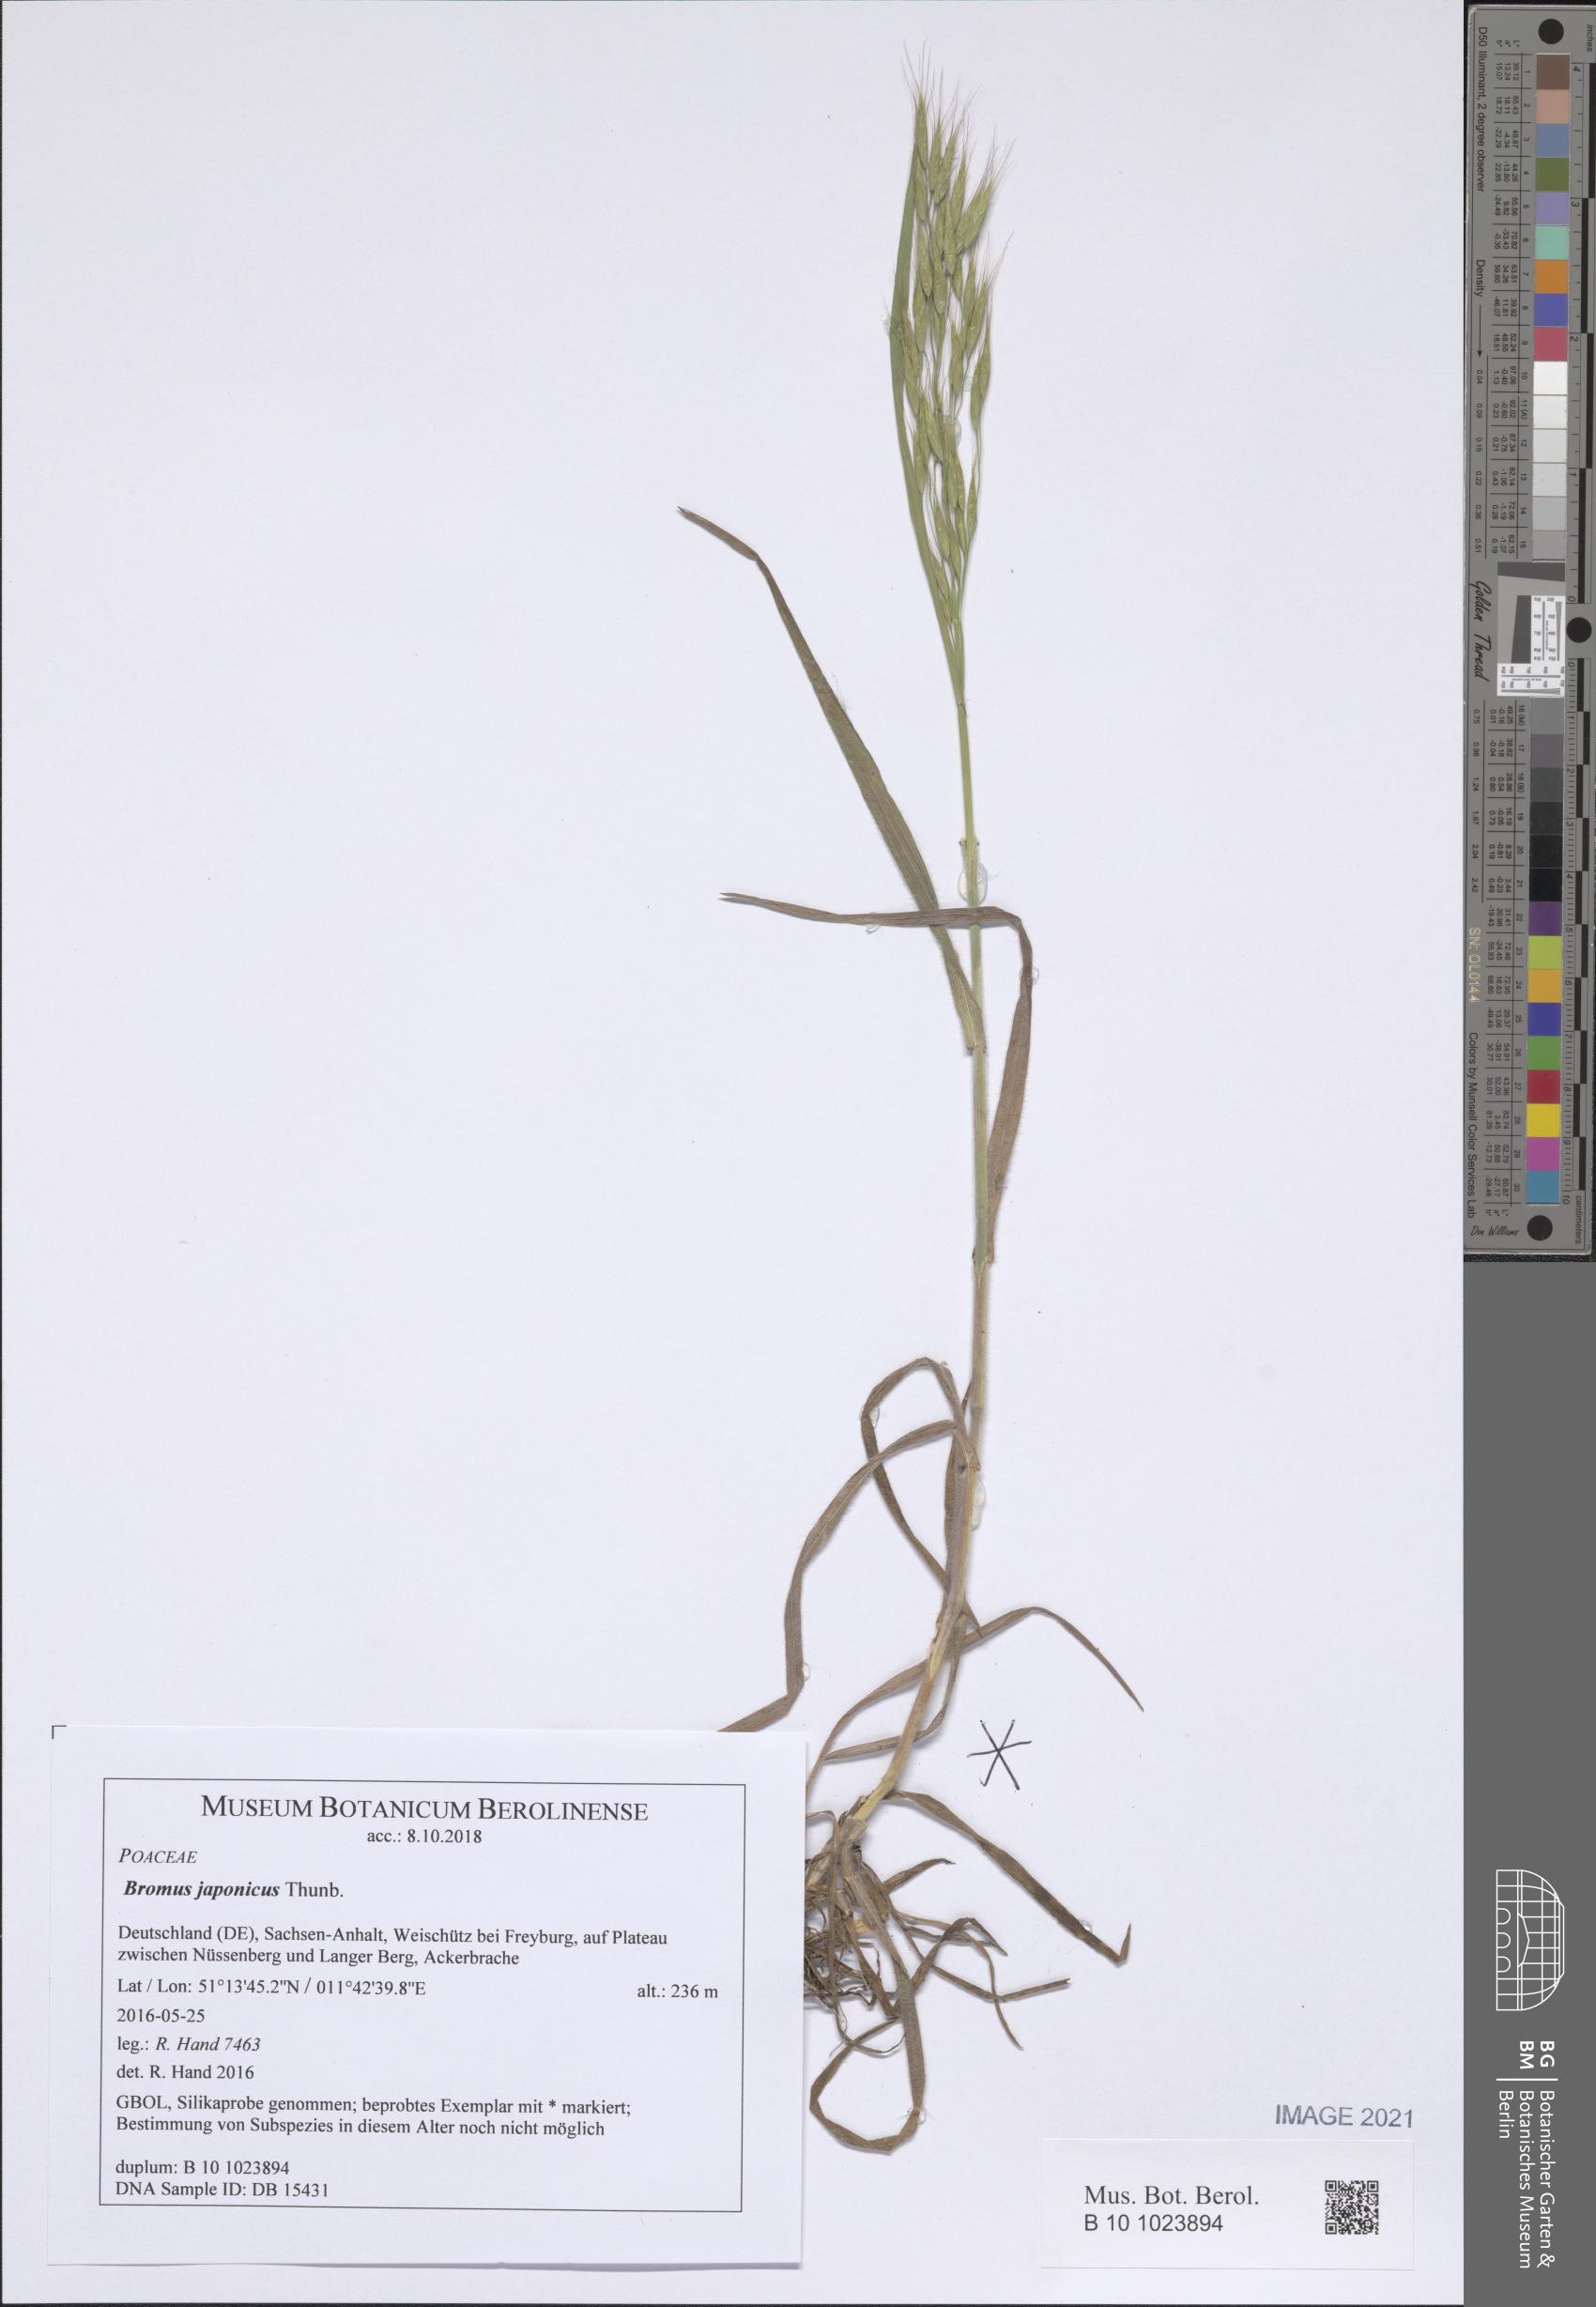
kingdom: Plantae
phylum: Tracheophyta
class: Liliopsida
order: Poales
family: Poaceae
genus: Bromus
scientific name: Bromus japonicus
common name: Japanese brome
